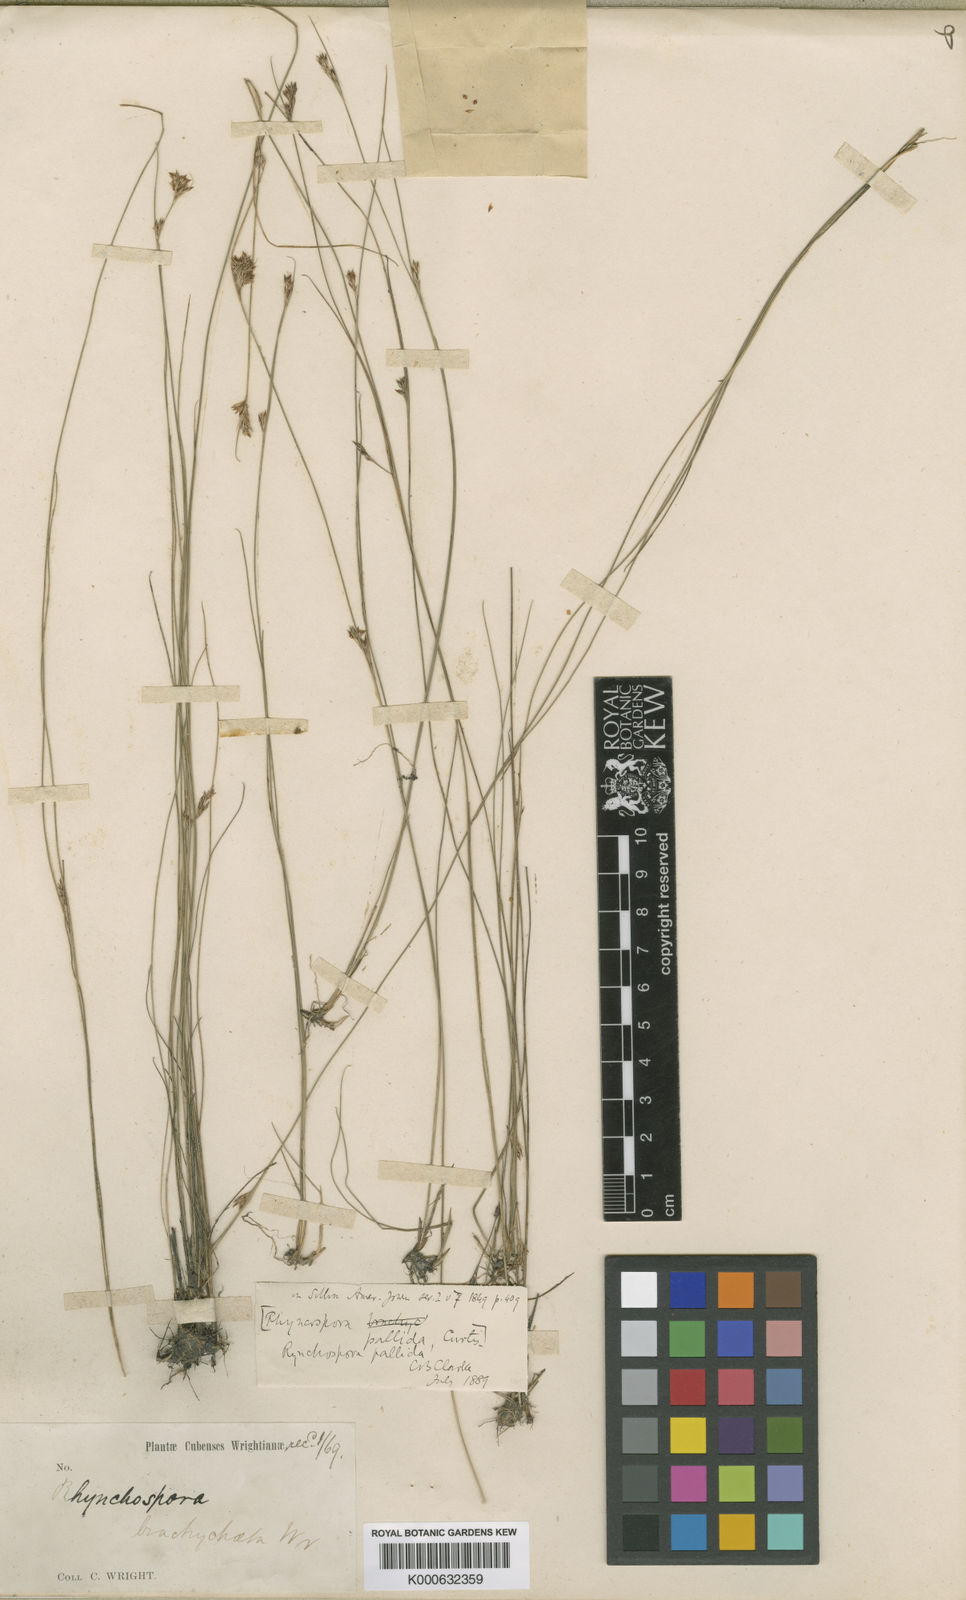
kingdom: Plantae
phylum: Tracheophyta
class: Liliopsida
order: Poales
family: Cyperaceae
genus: Rhynchospora
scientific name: Rhynchospora fascicularis
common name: Fascicled beak sedge
